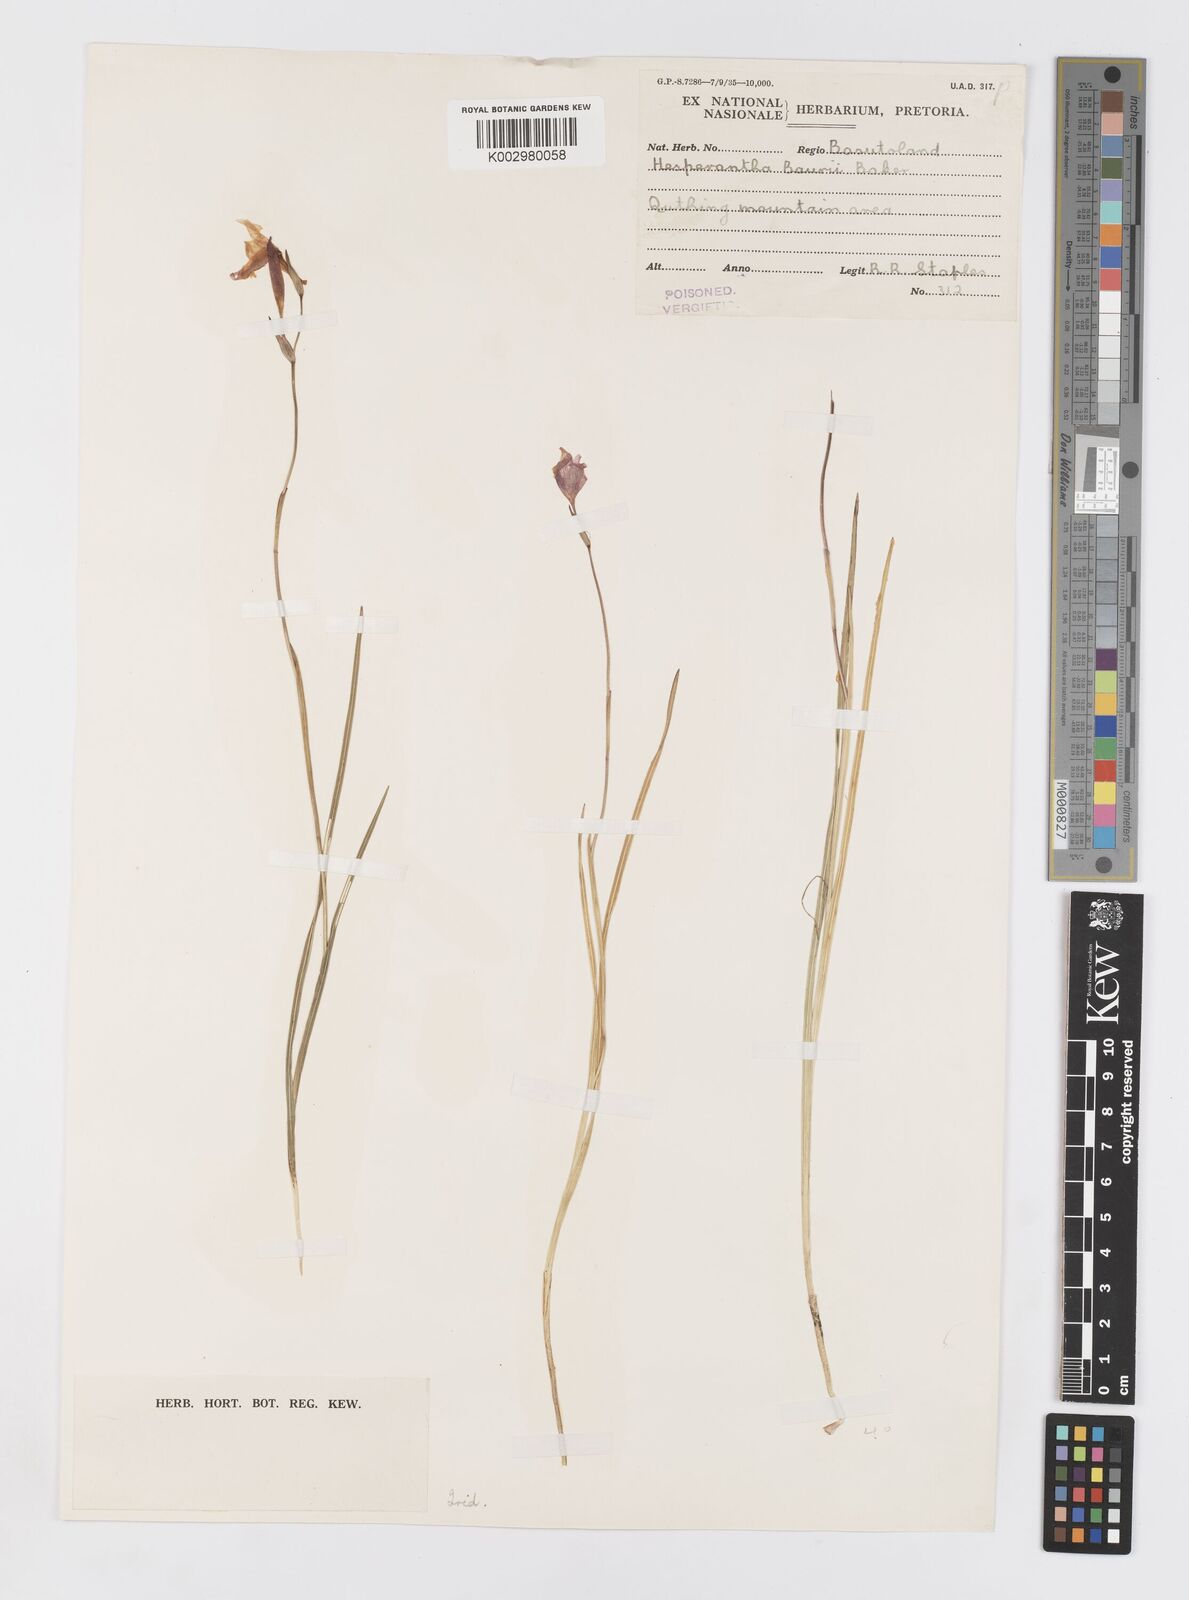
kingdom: Plantae
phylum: Tracheophyta
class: Liliopsida
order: Asparagales
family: Iridaceae
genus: Hesperantha
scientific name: Hesperantha baurii
